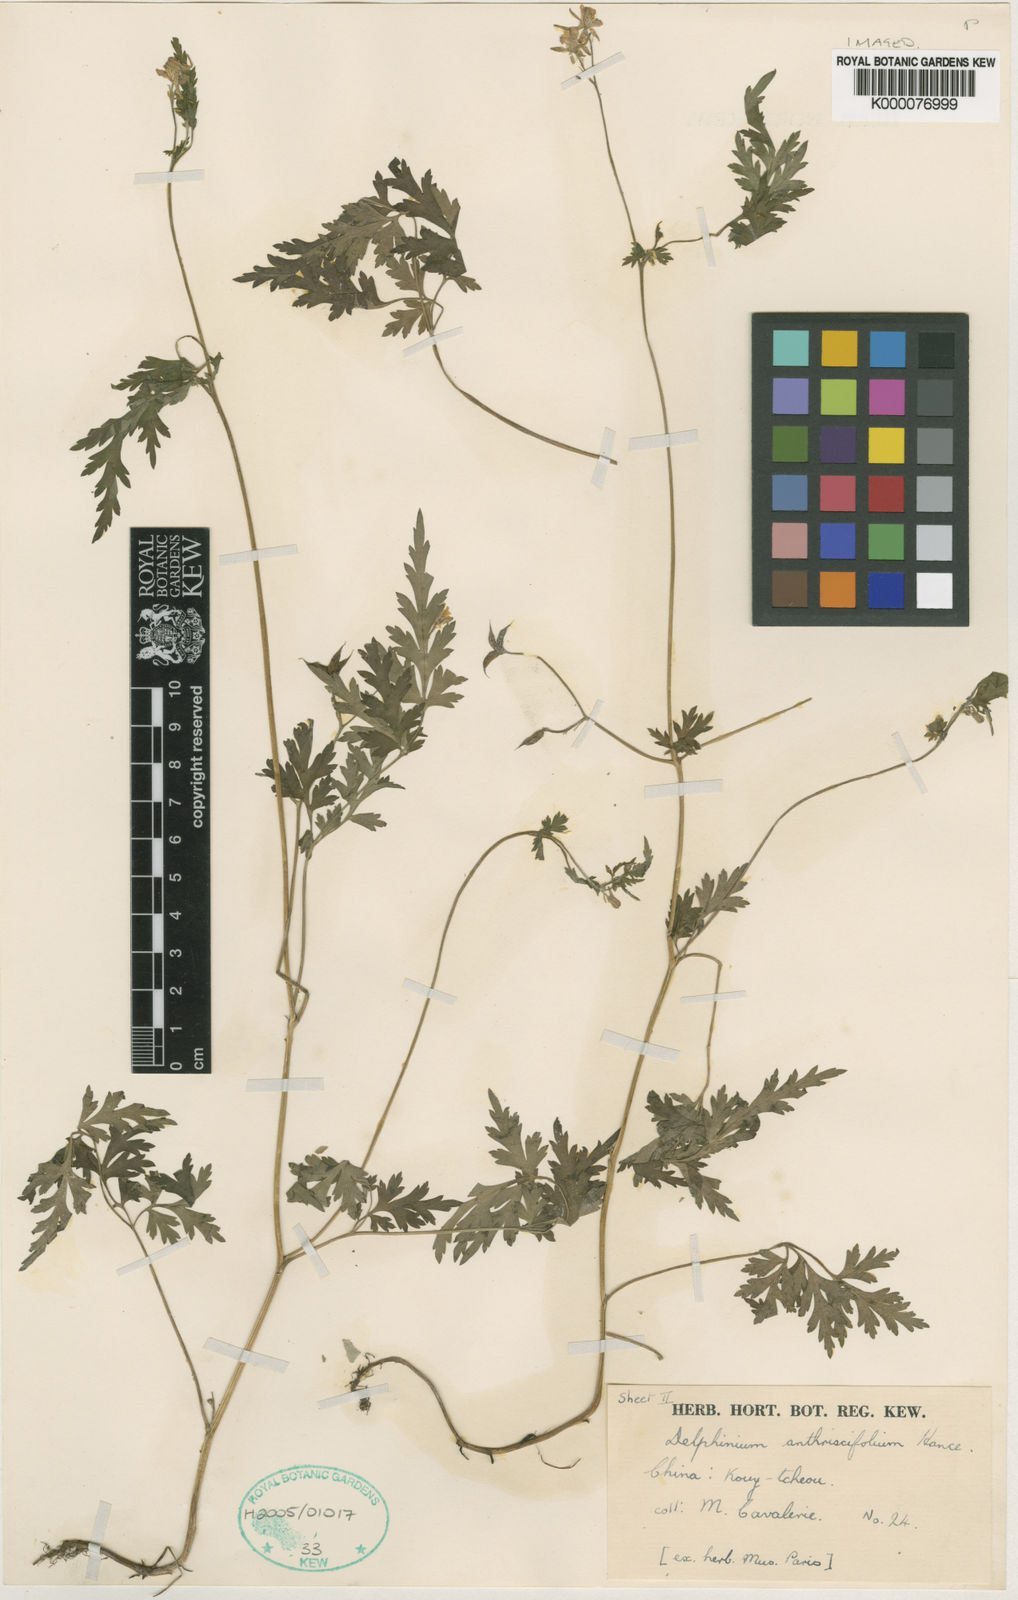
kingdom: Plantae
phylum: Tracheophyta
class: Magnoliopsida
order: Ranunculales
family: Ranunculaceae
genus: Delphinium
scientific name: Delphinium anthriscifolium
